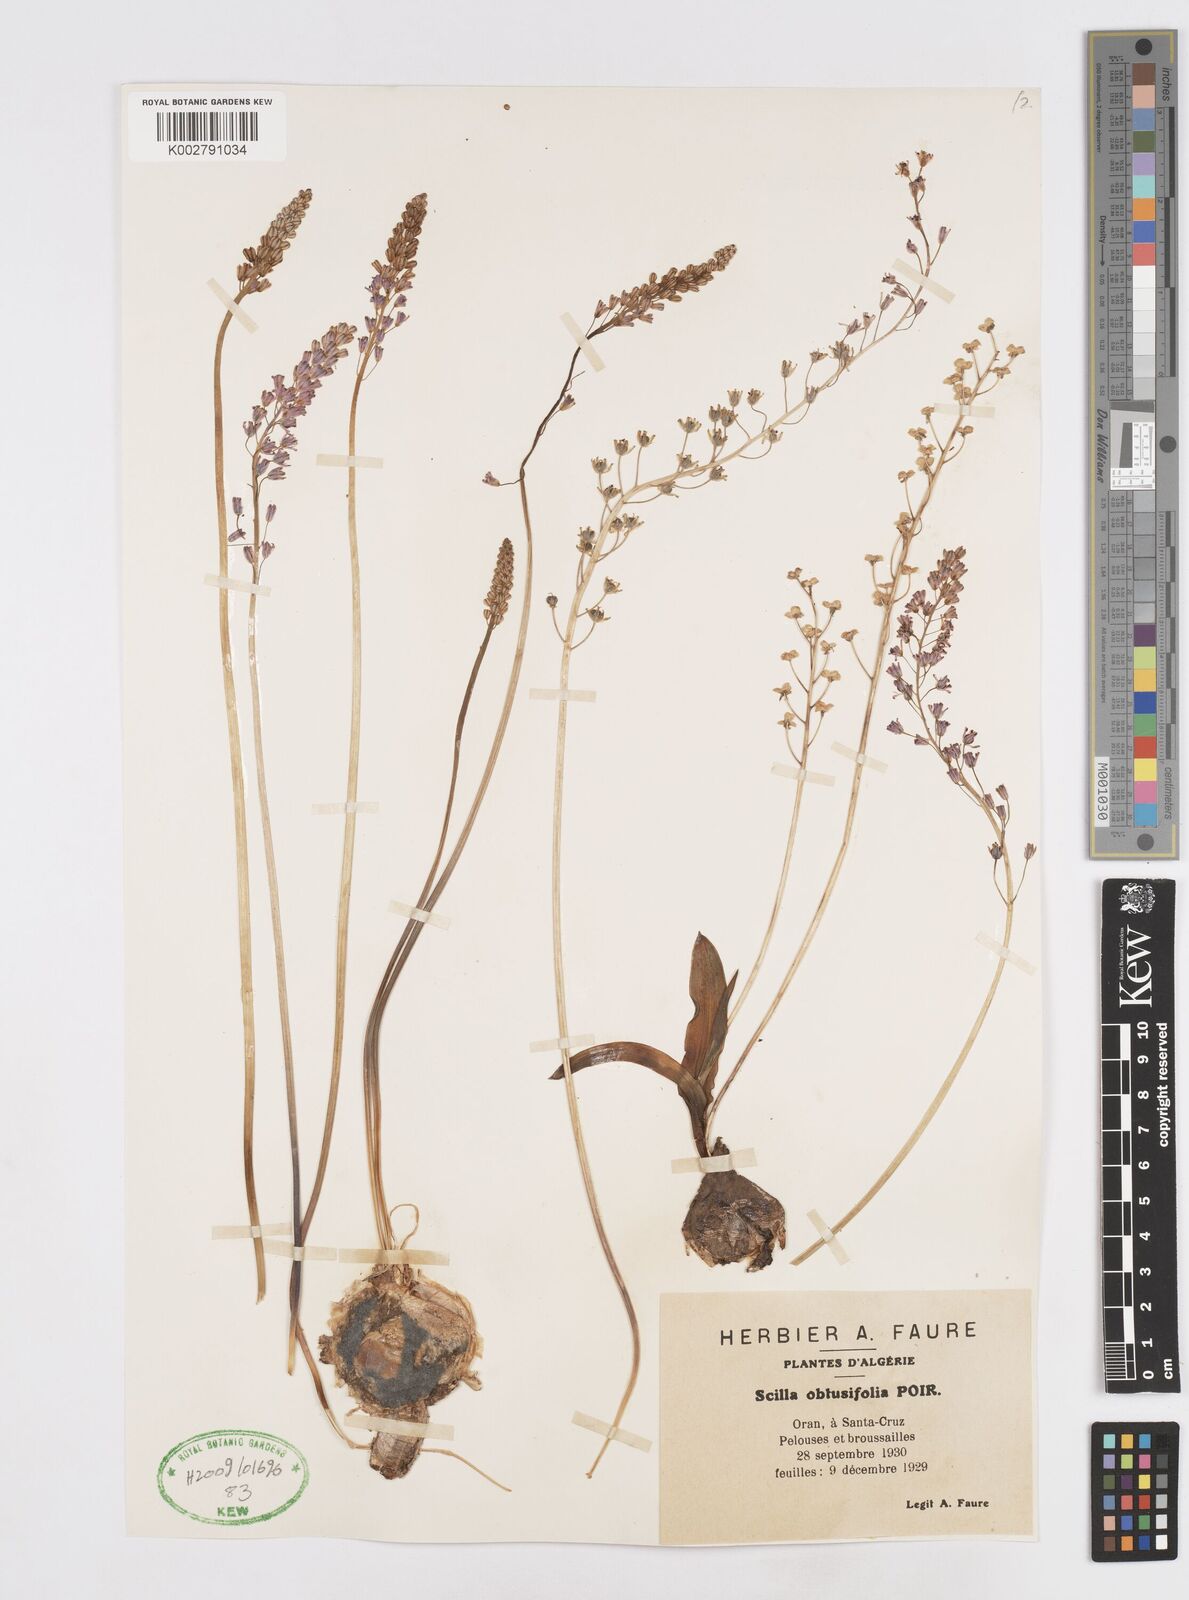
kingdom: Plantae
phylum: Tracheophyta
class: Liliopsida
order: Asparagales
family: Asparagaceae
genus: Prospero
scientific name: Prospero obtusifolium
